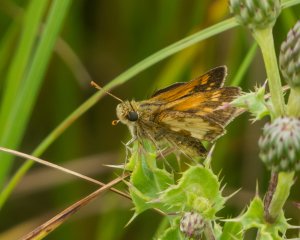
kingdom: Animalia
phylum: Arthropoda
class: Insecta
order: Lepidoptera
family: Hesperiidae
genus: Polites
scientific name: Polites coras
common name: Peck's Skipper
